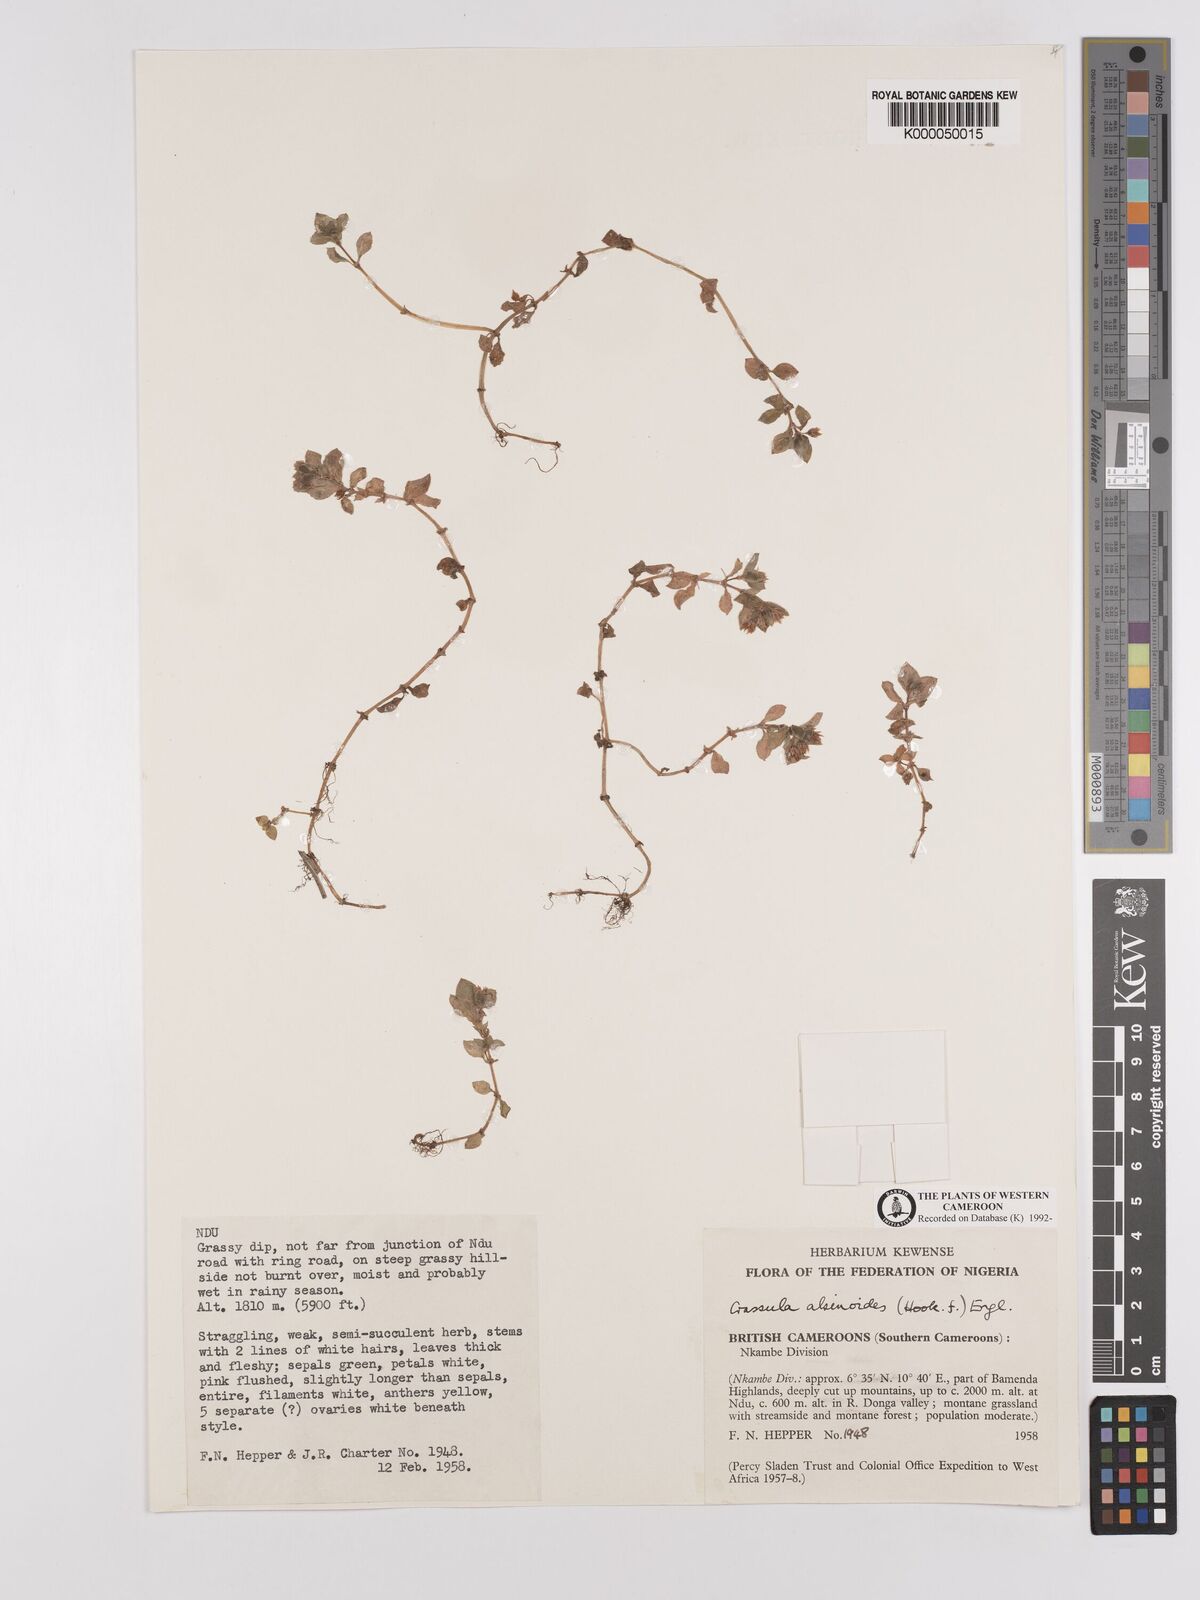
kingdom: Plantae
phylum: Tracheophyta
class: Magnoliopsida
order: Saxifragales
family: Crassulaceae
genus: Crassula
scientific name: Crassula alsinoides
